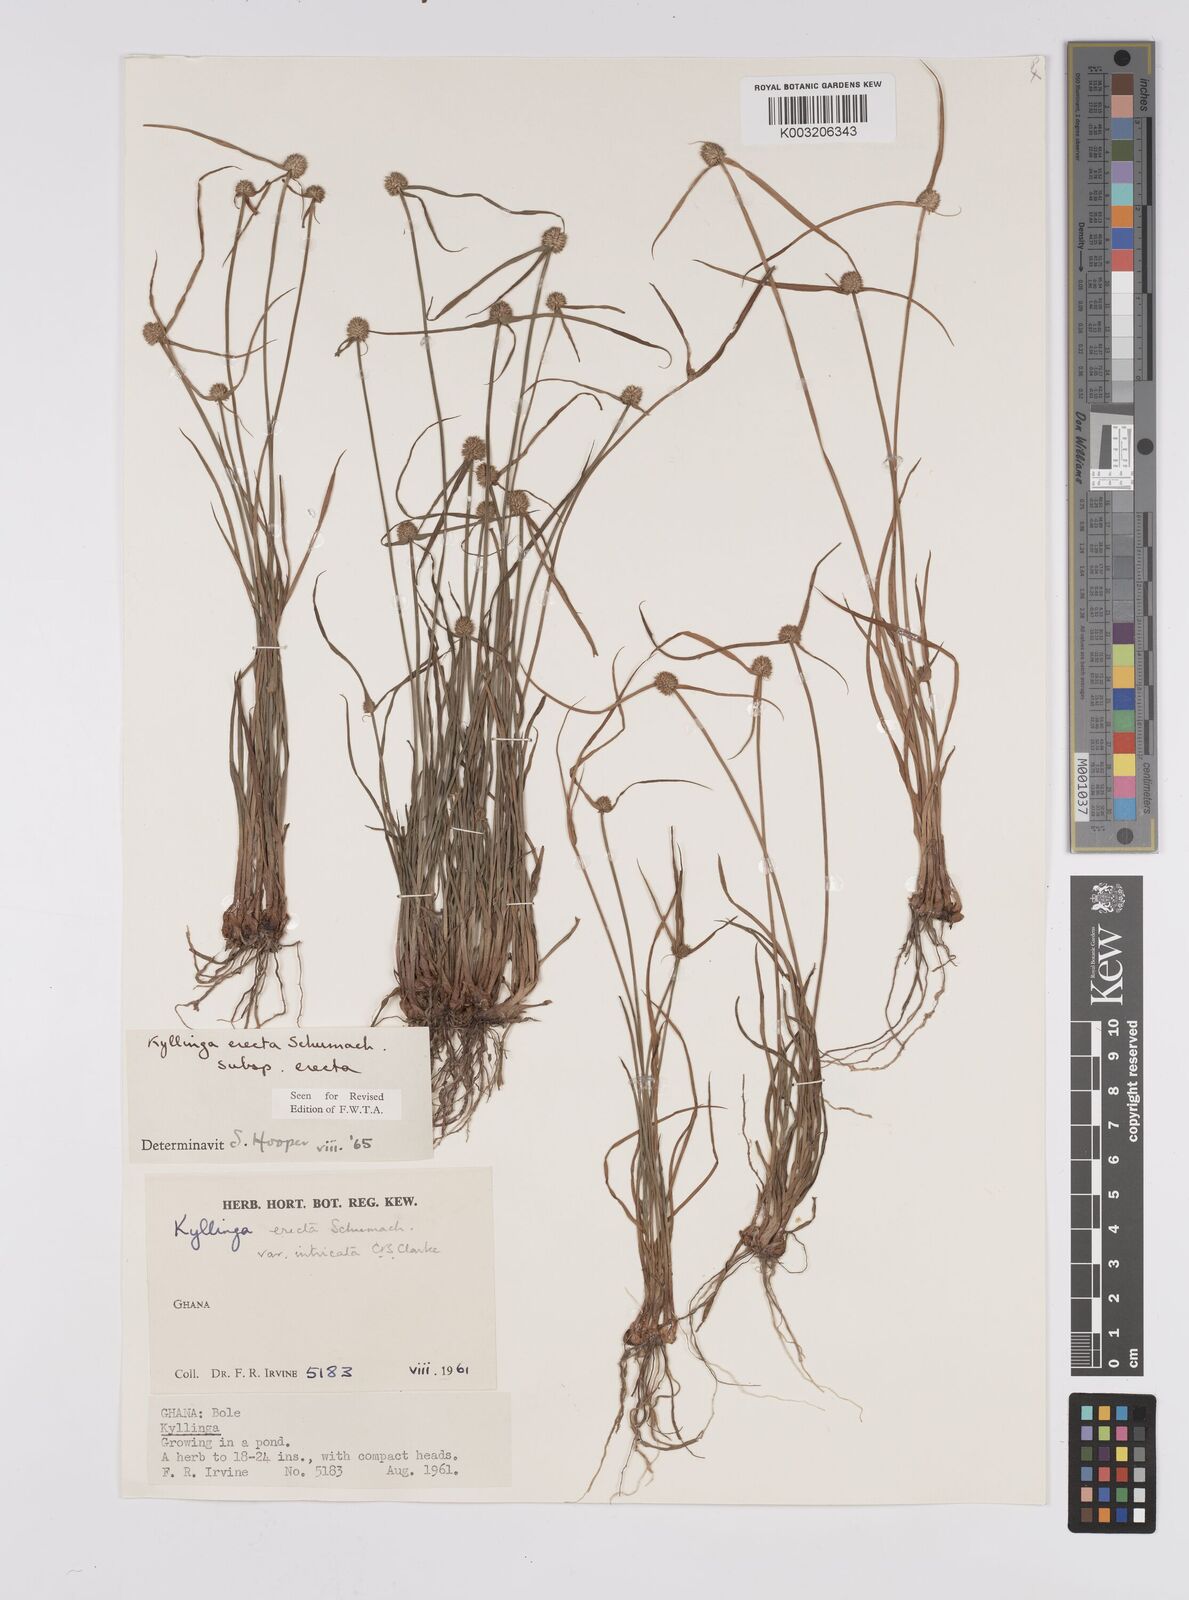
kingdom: Plantae
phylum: Tracheophyta
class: Liliopsida
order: Poales
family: Cyperaceae
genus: Cyperus
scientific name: Cyperus erectus
